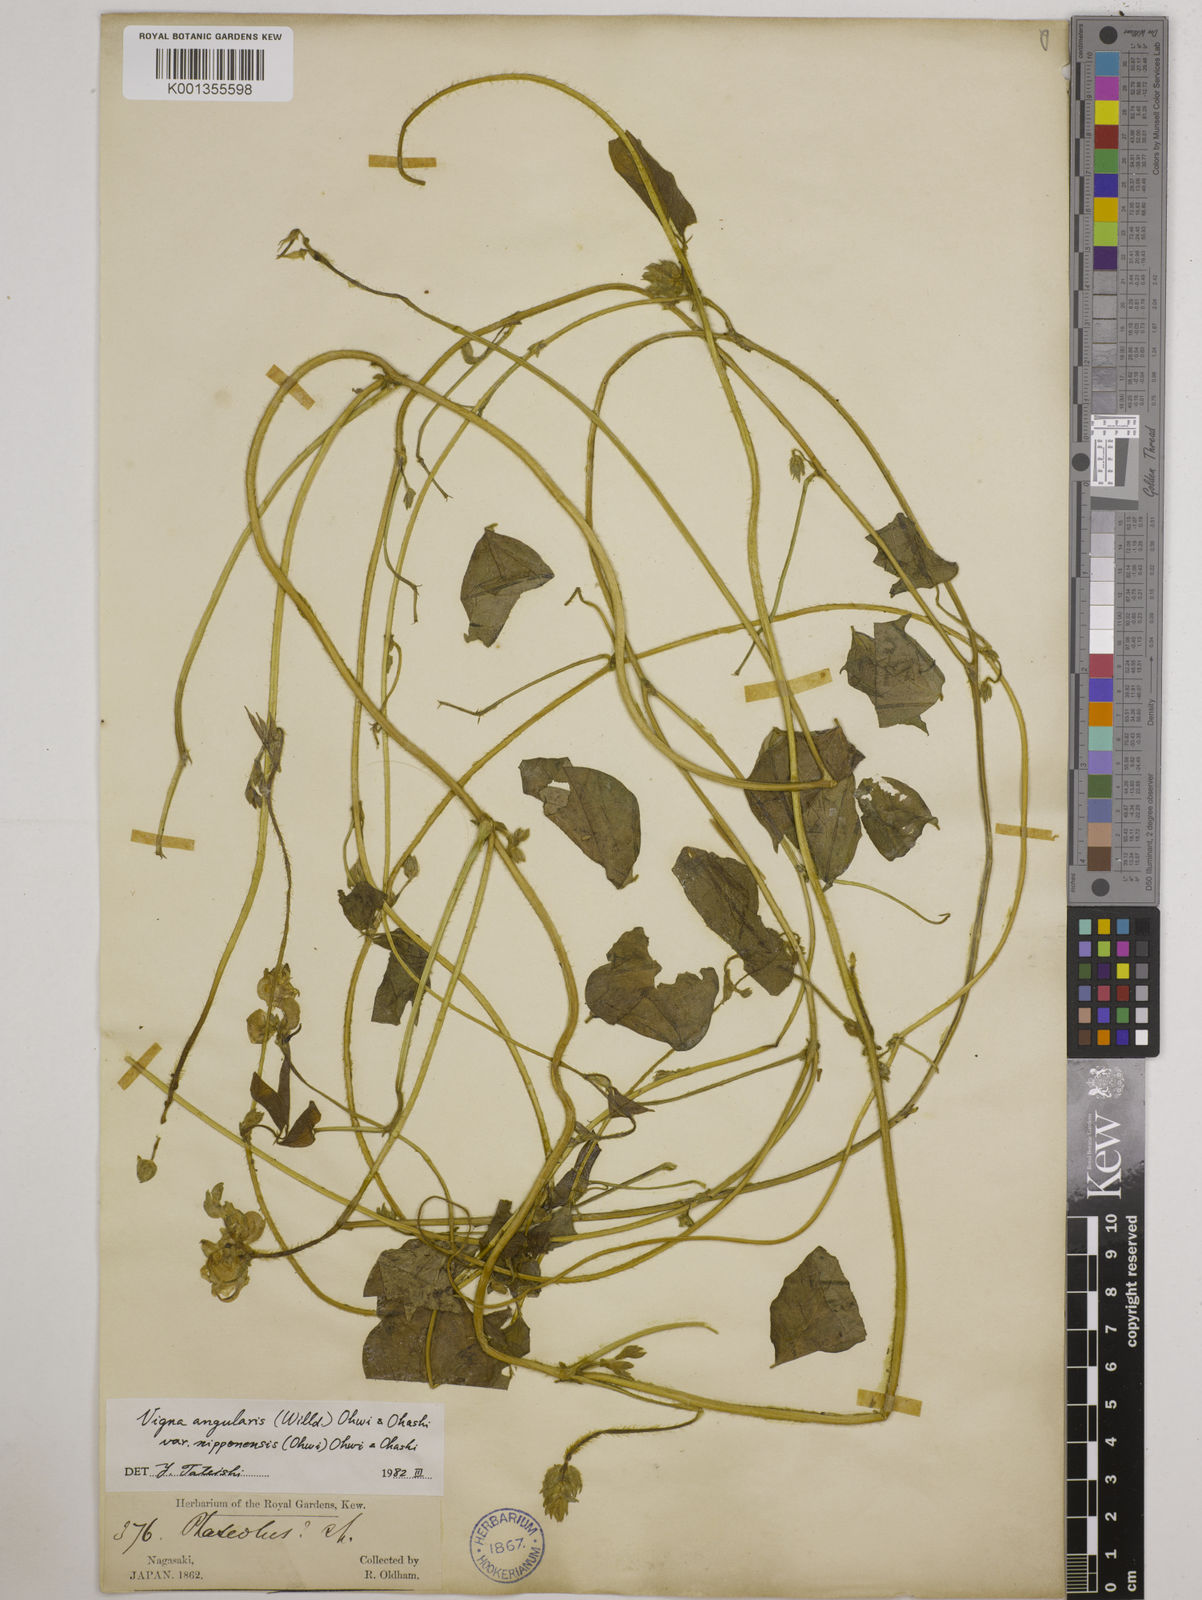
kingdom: Plantae
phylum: Tracheophyta
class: Magnoliopsida
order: Fabales
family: Fabaceae
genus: Vigna
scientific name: Vigna
